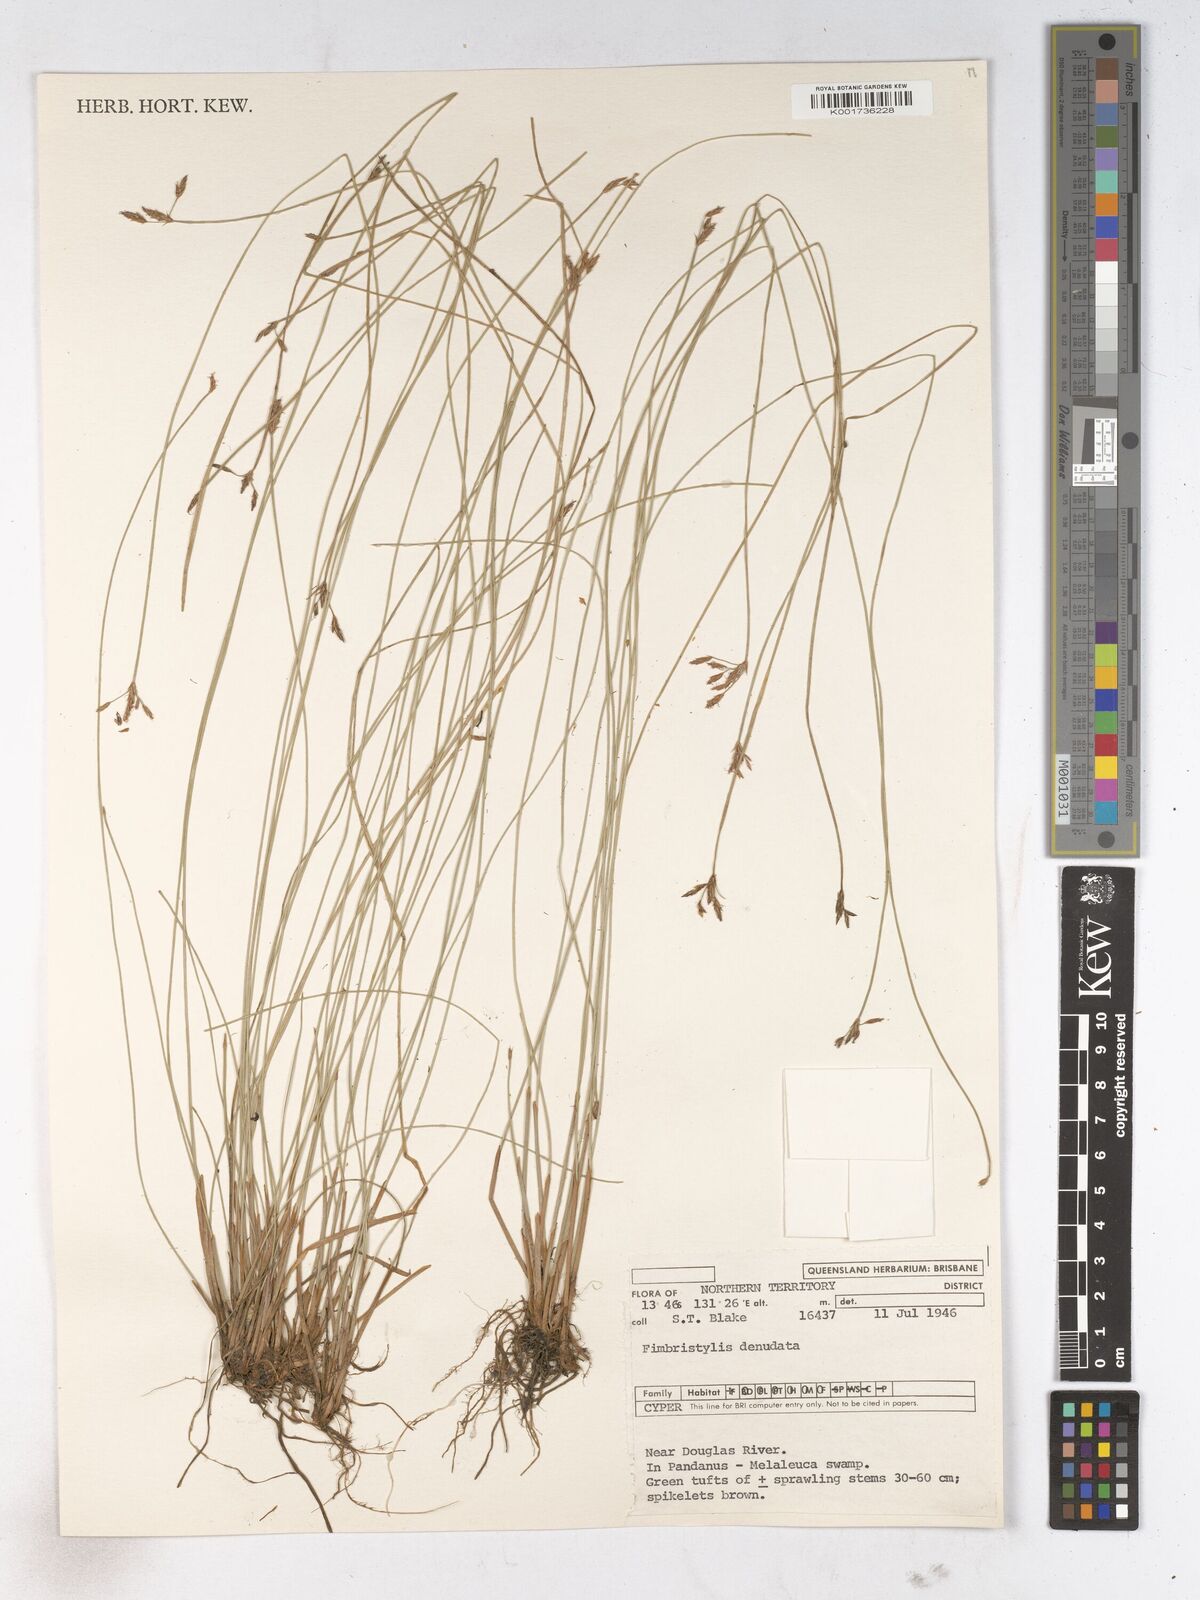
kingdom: Plantae
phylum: Tracheophyta
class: Liliopsida
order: Poales
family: Cyperaceae
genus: Fimbristylis
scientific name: Fimbristylis denudata
